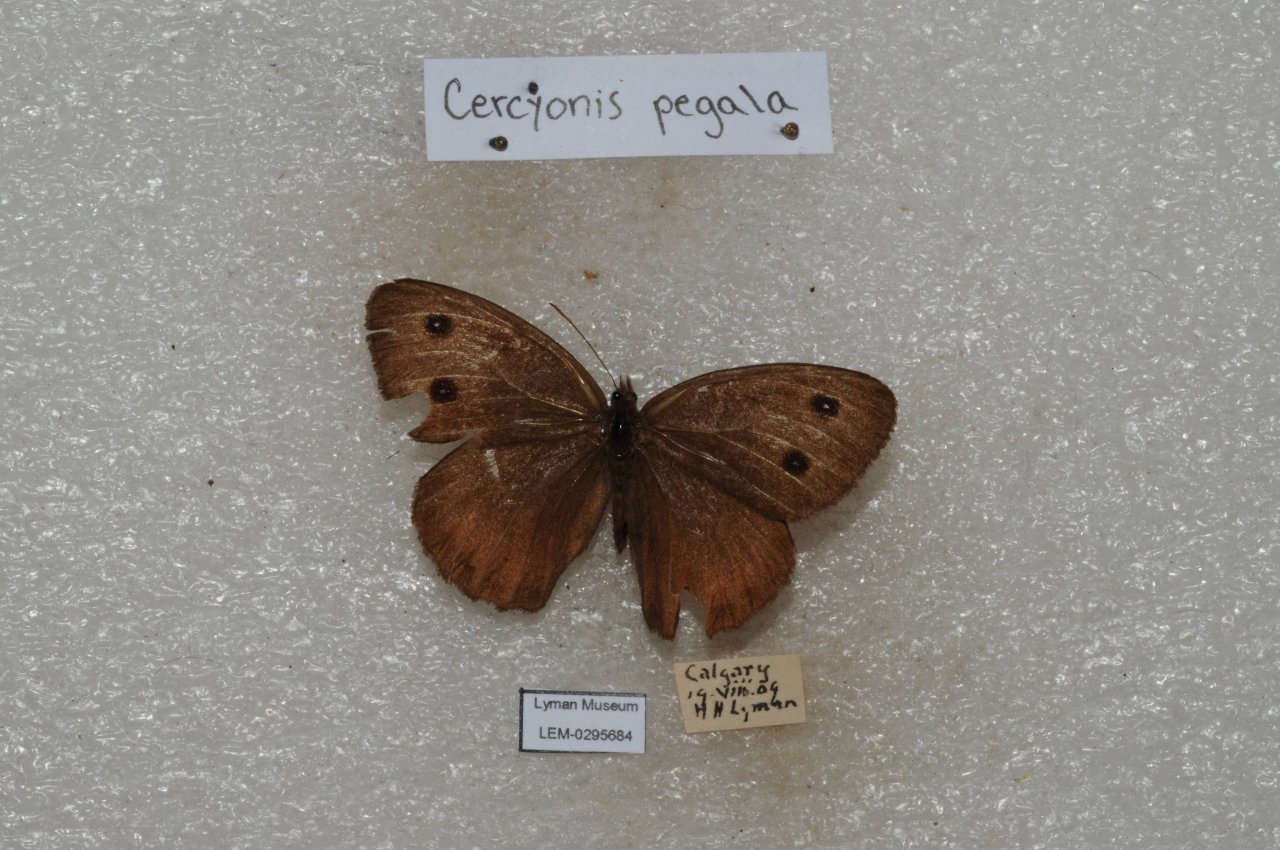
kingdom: Animalia
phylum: Arthropoda
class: Insecta
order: Lepidoptera
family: Nymphalidae
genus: Cercyonis
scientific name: Cercyonis pegala
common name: Common Wood-Nymph
